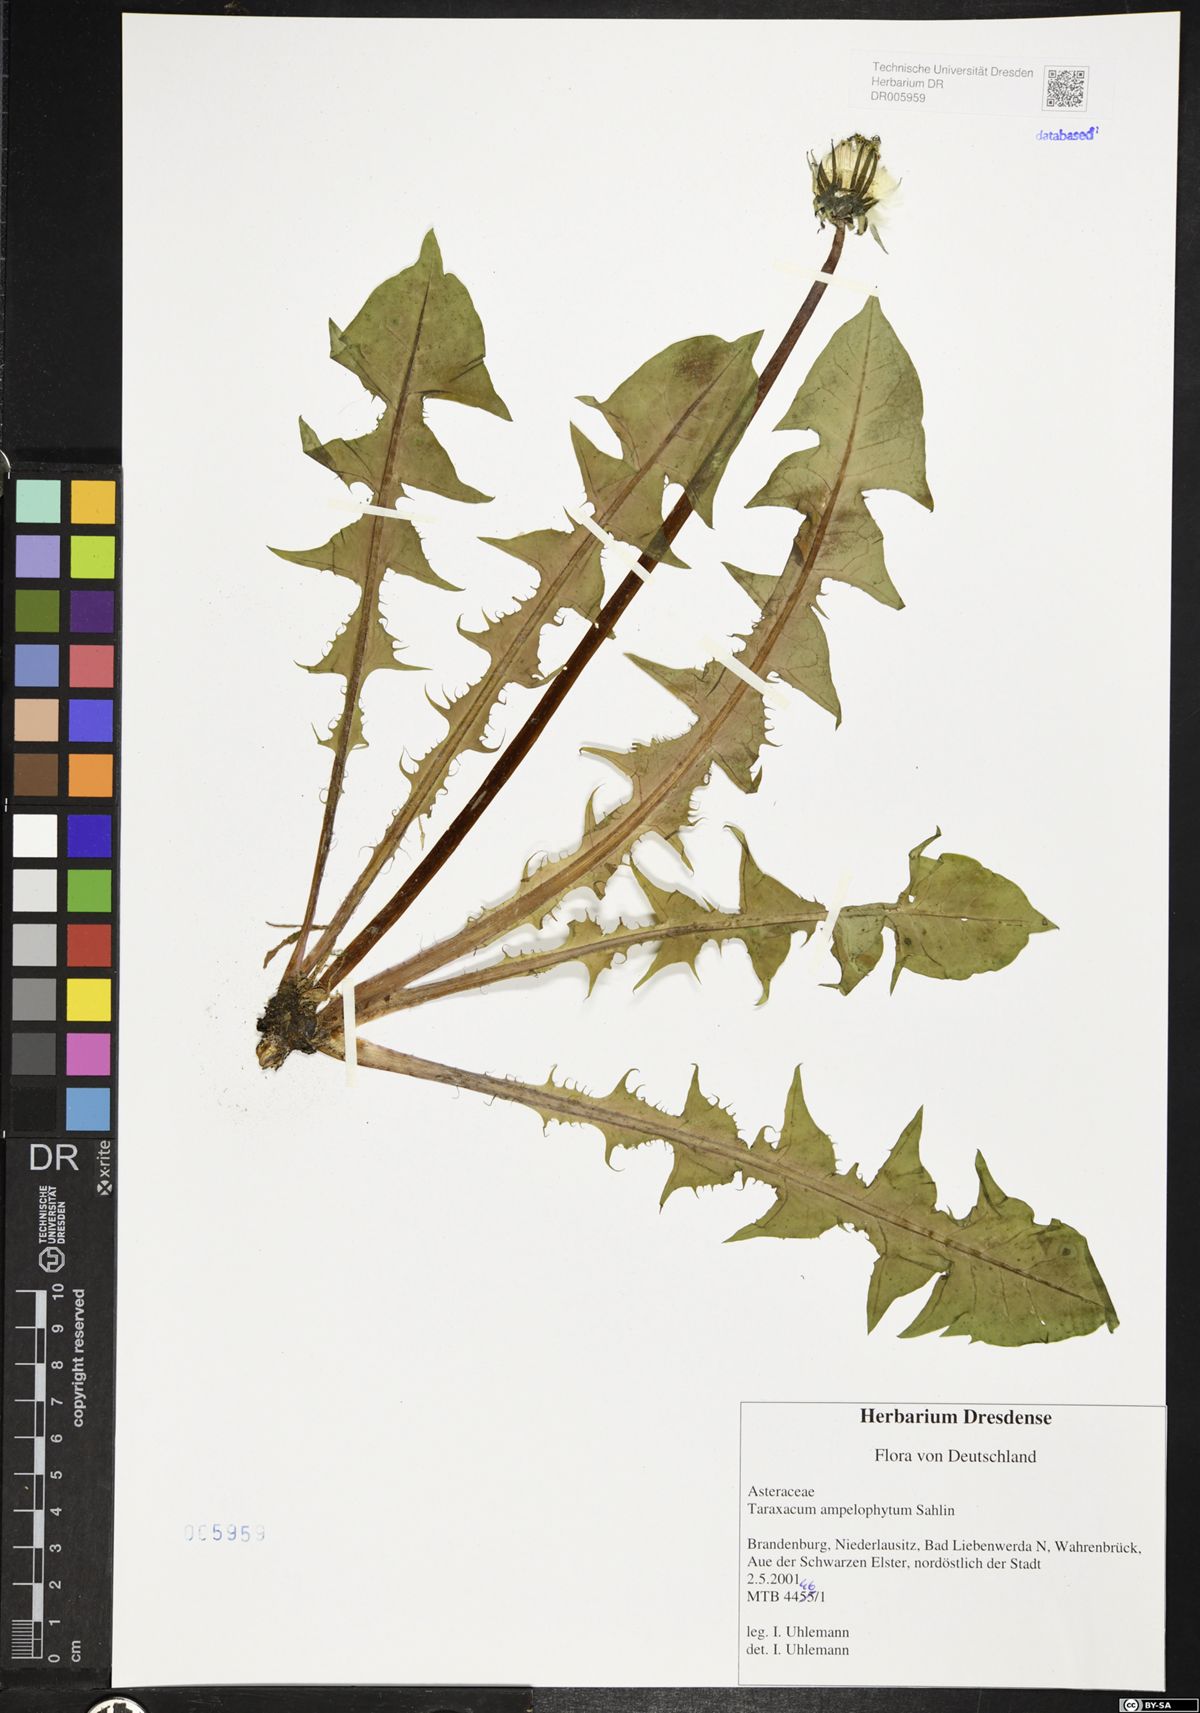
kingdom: Plantae
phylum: Tracheophyta
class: Magnoliopsida
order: Asterales
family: Asteraceae
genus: Taraxacum
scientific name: Taraxacum debrayi
